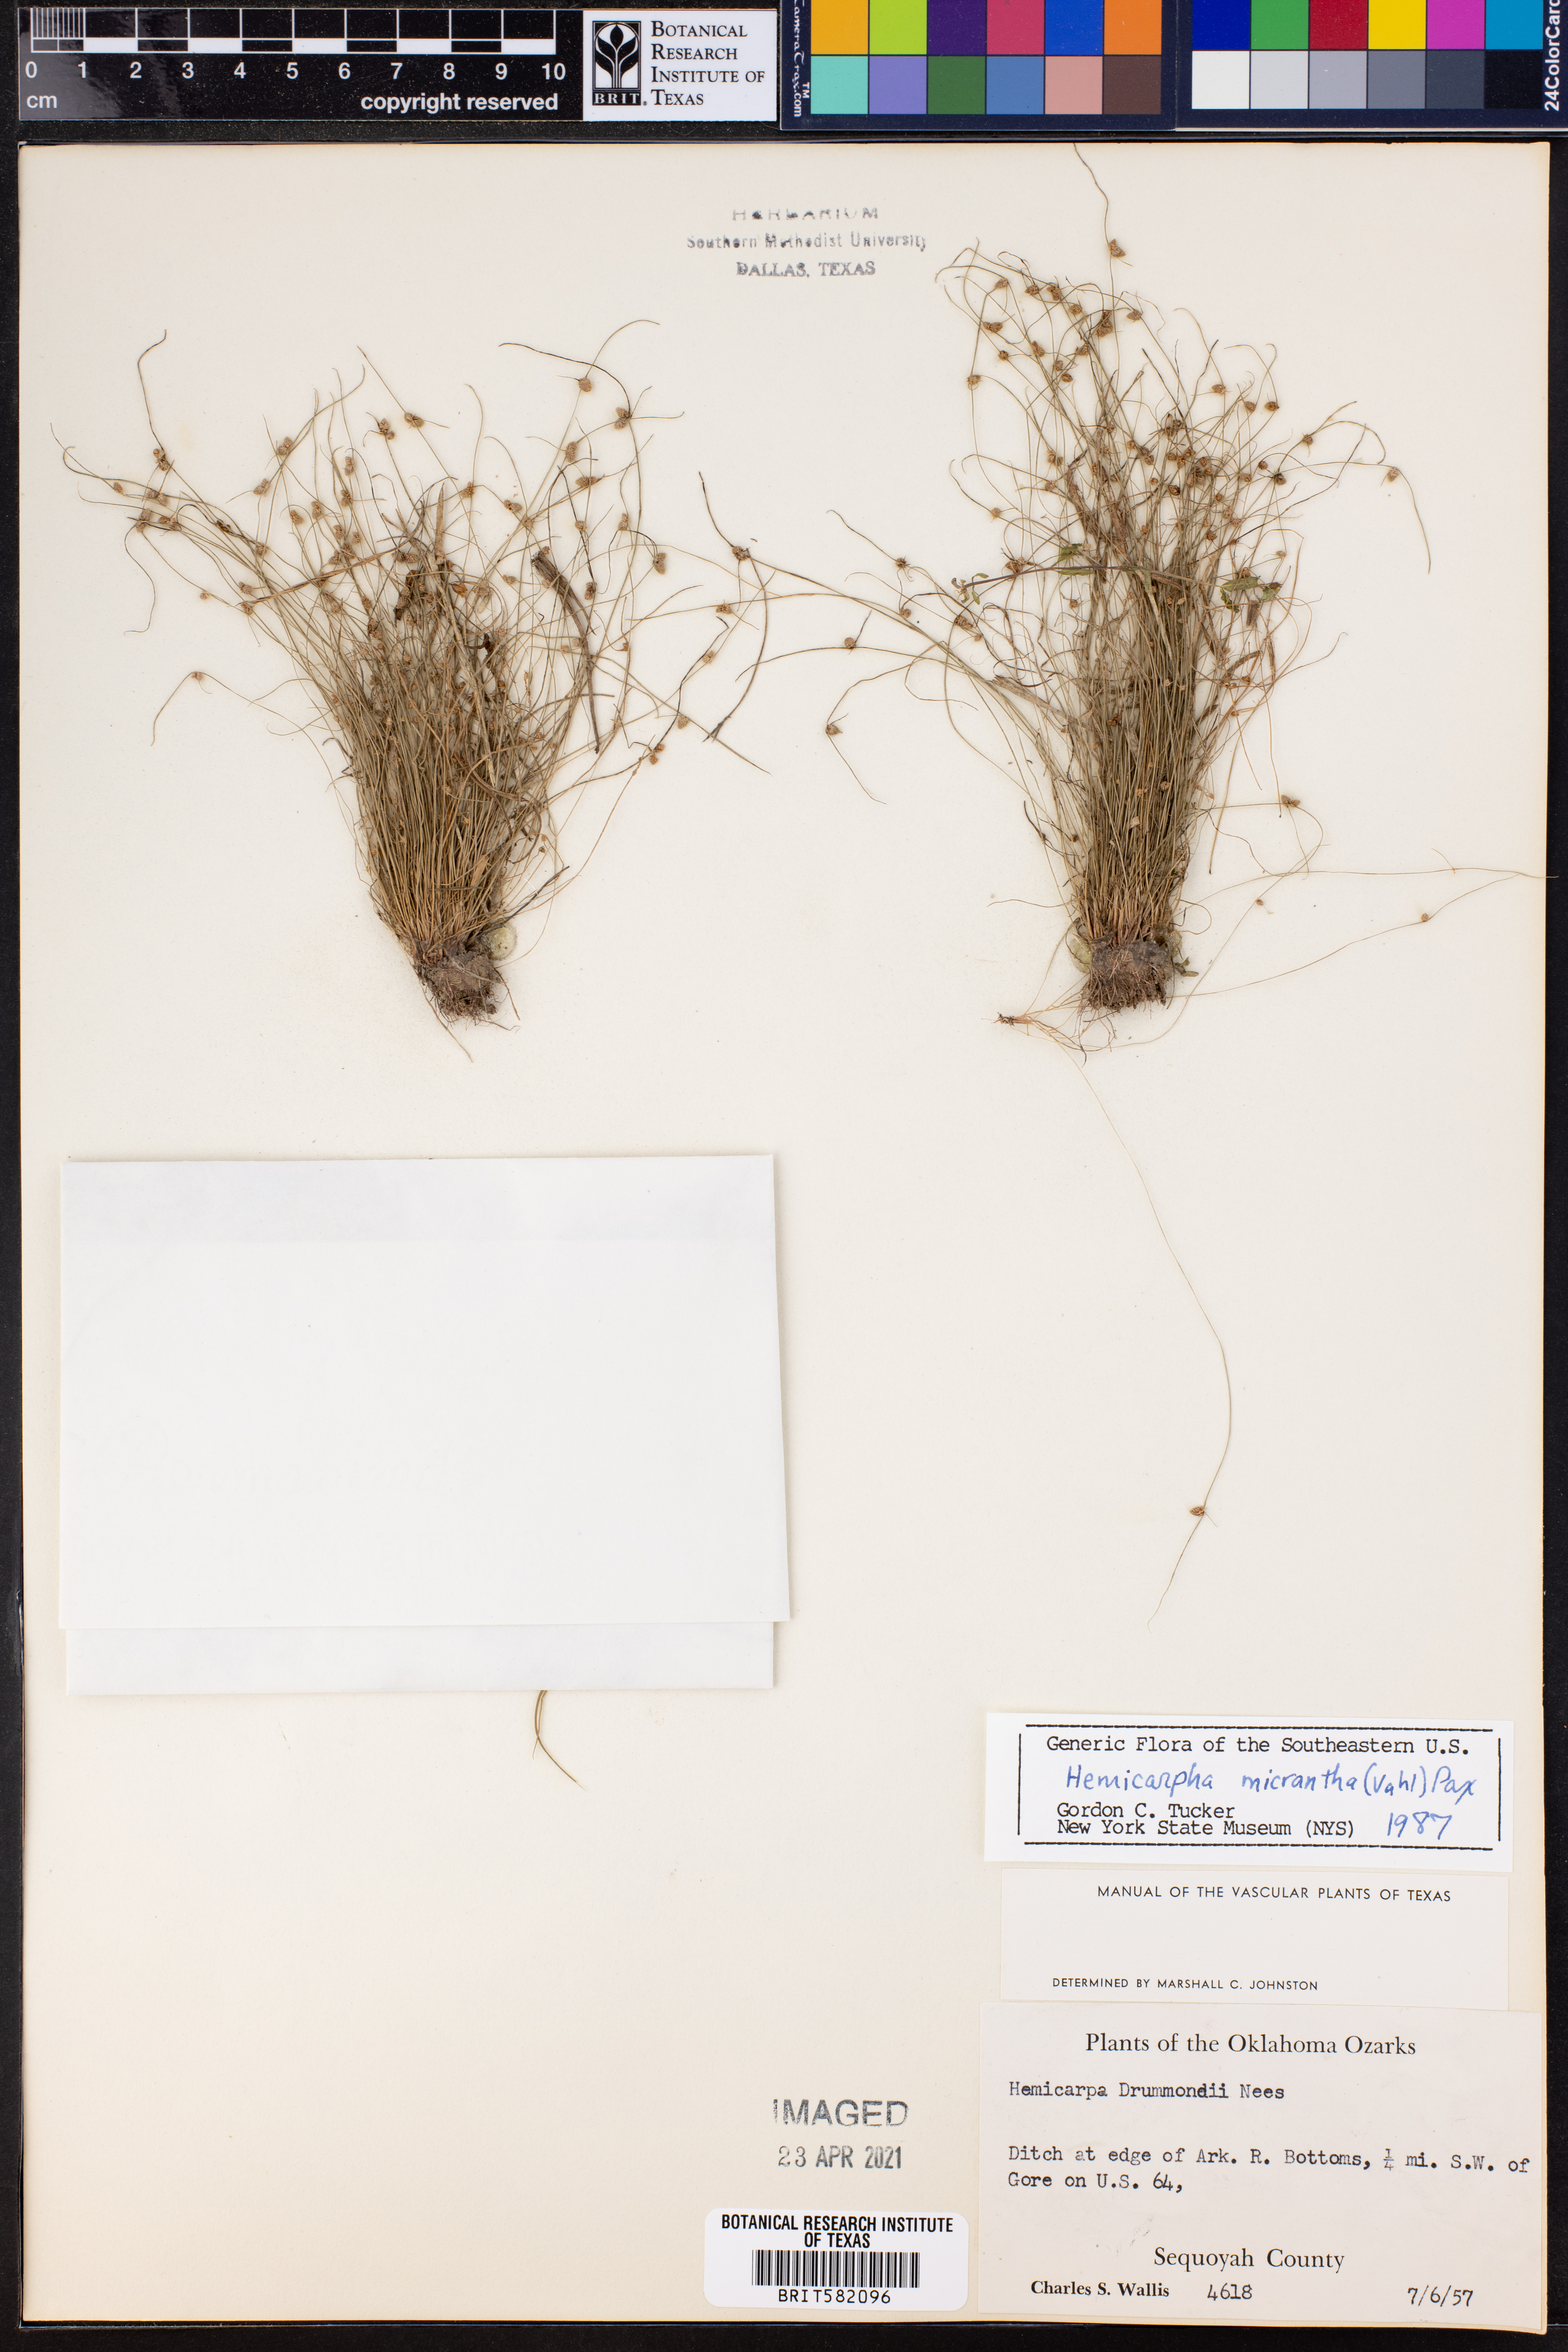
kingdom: Plantae
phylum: Tracheophyta
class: Liliopsida
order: Poales
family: Cyperaceae
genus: Cyperus
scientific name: Cyperus subsquarrosus
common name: Dwarf bulrush
